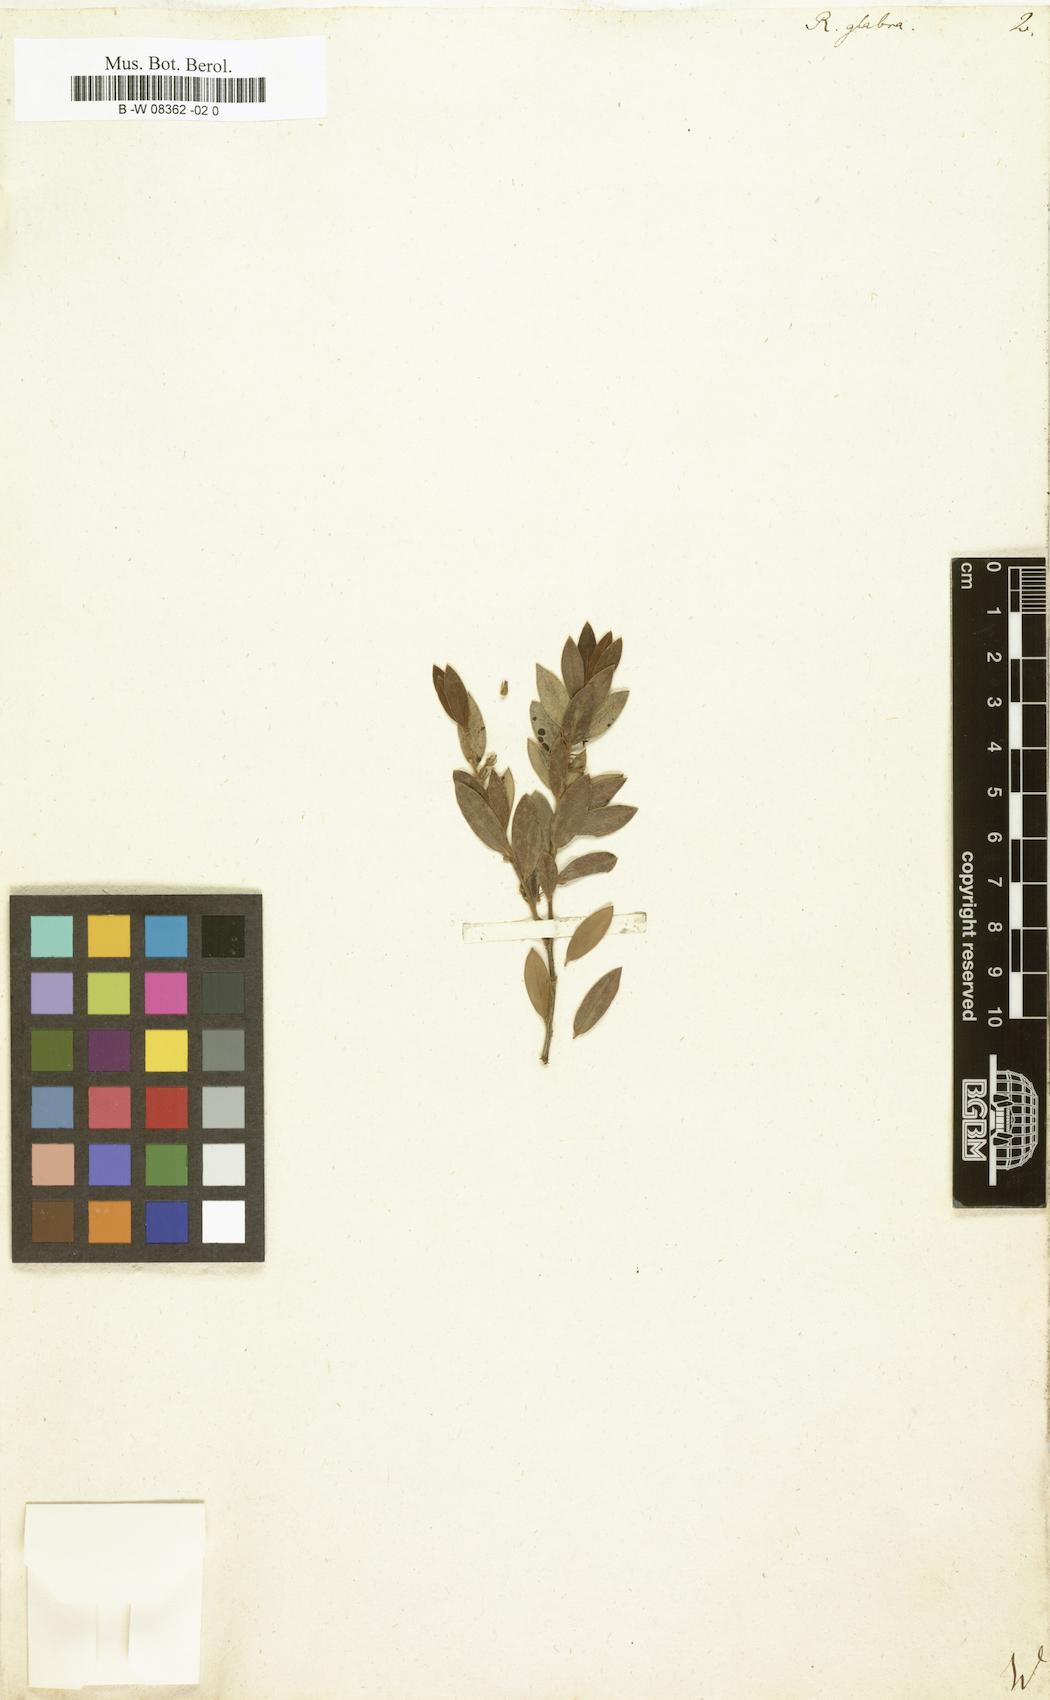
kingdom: Plantae
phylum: Tracheophyta
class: Magnoliopsida
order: Ericales
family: Ebenaceae
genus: Diospyros
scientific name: Diospyros glabra
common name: Fynbos star apple
